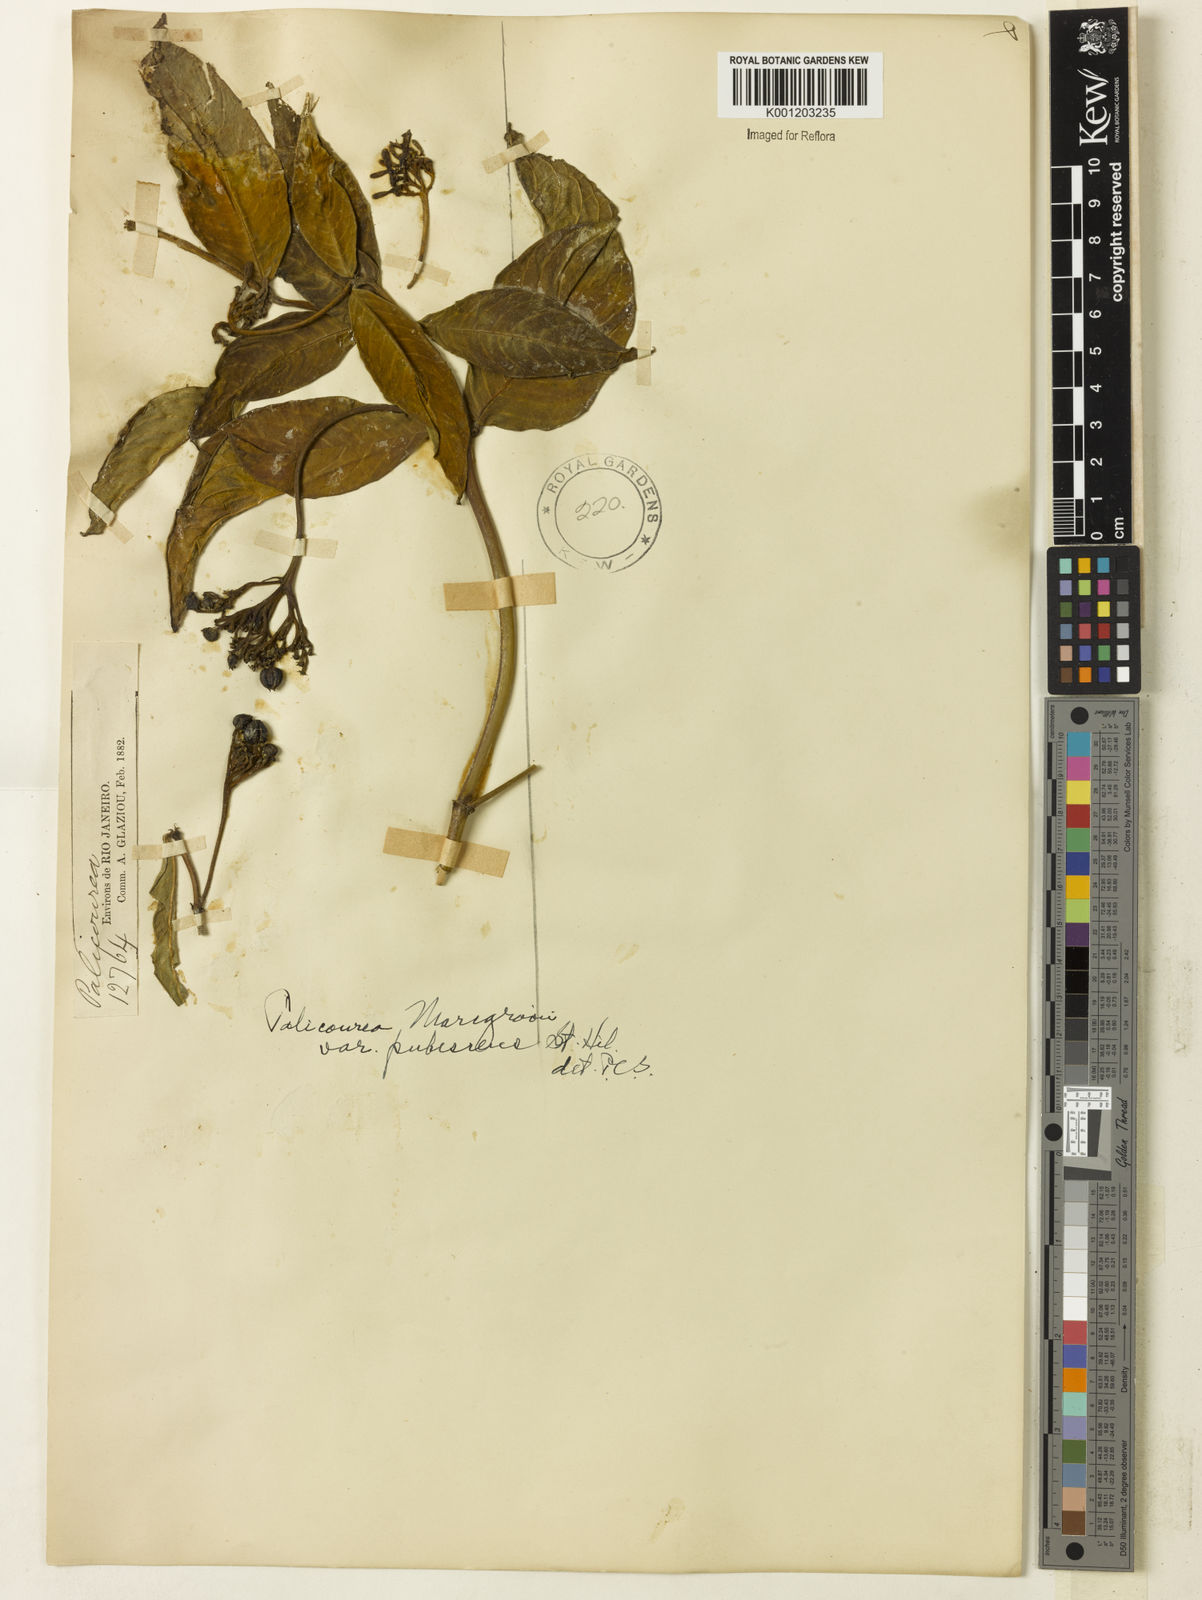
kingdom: Plantae
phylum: Tracheophyta
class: Magnoliopsida
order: Gentianales
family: Rubiaceae
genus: Palicourea
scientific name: Palicourea marcgravii
